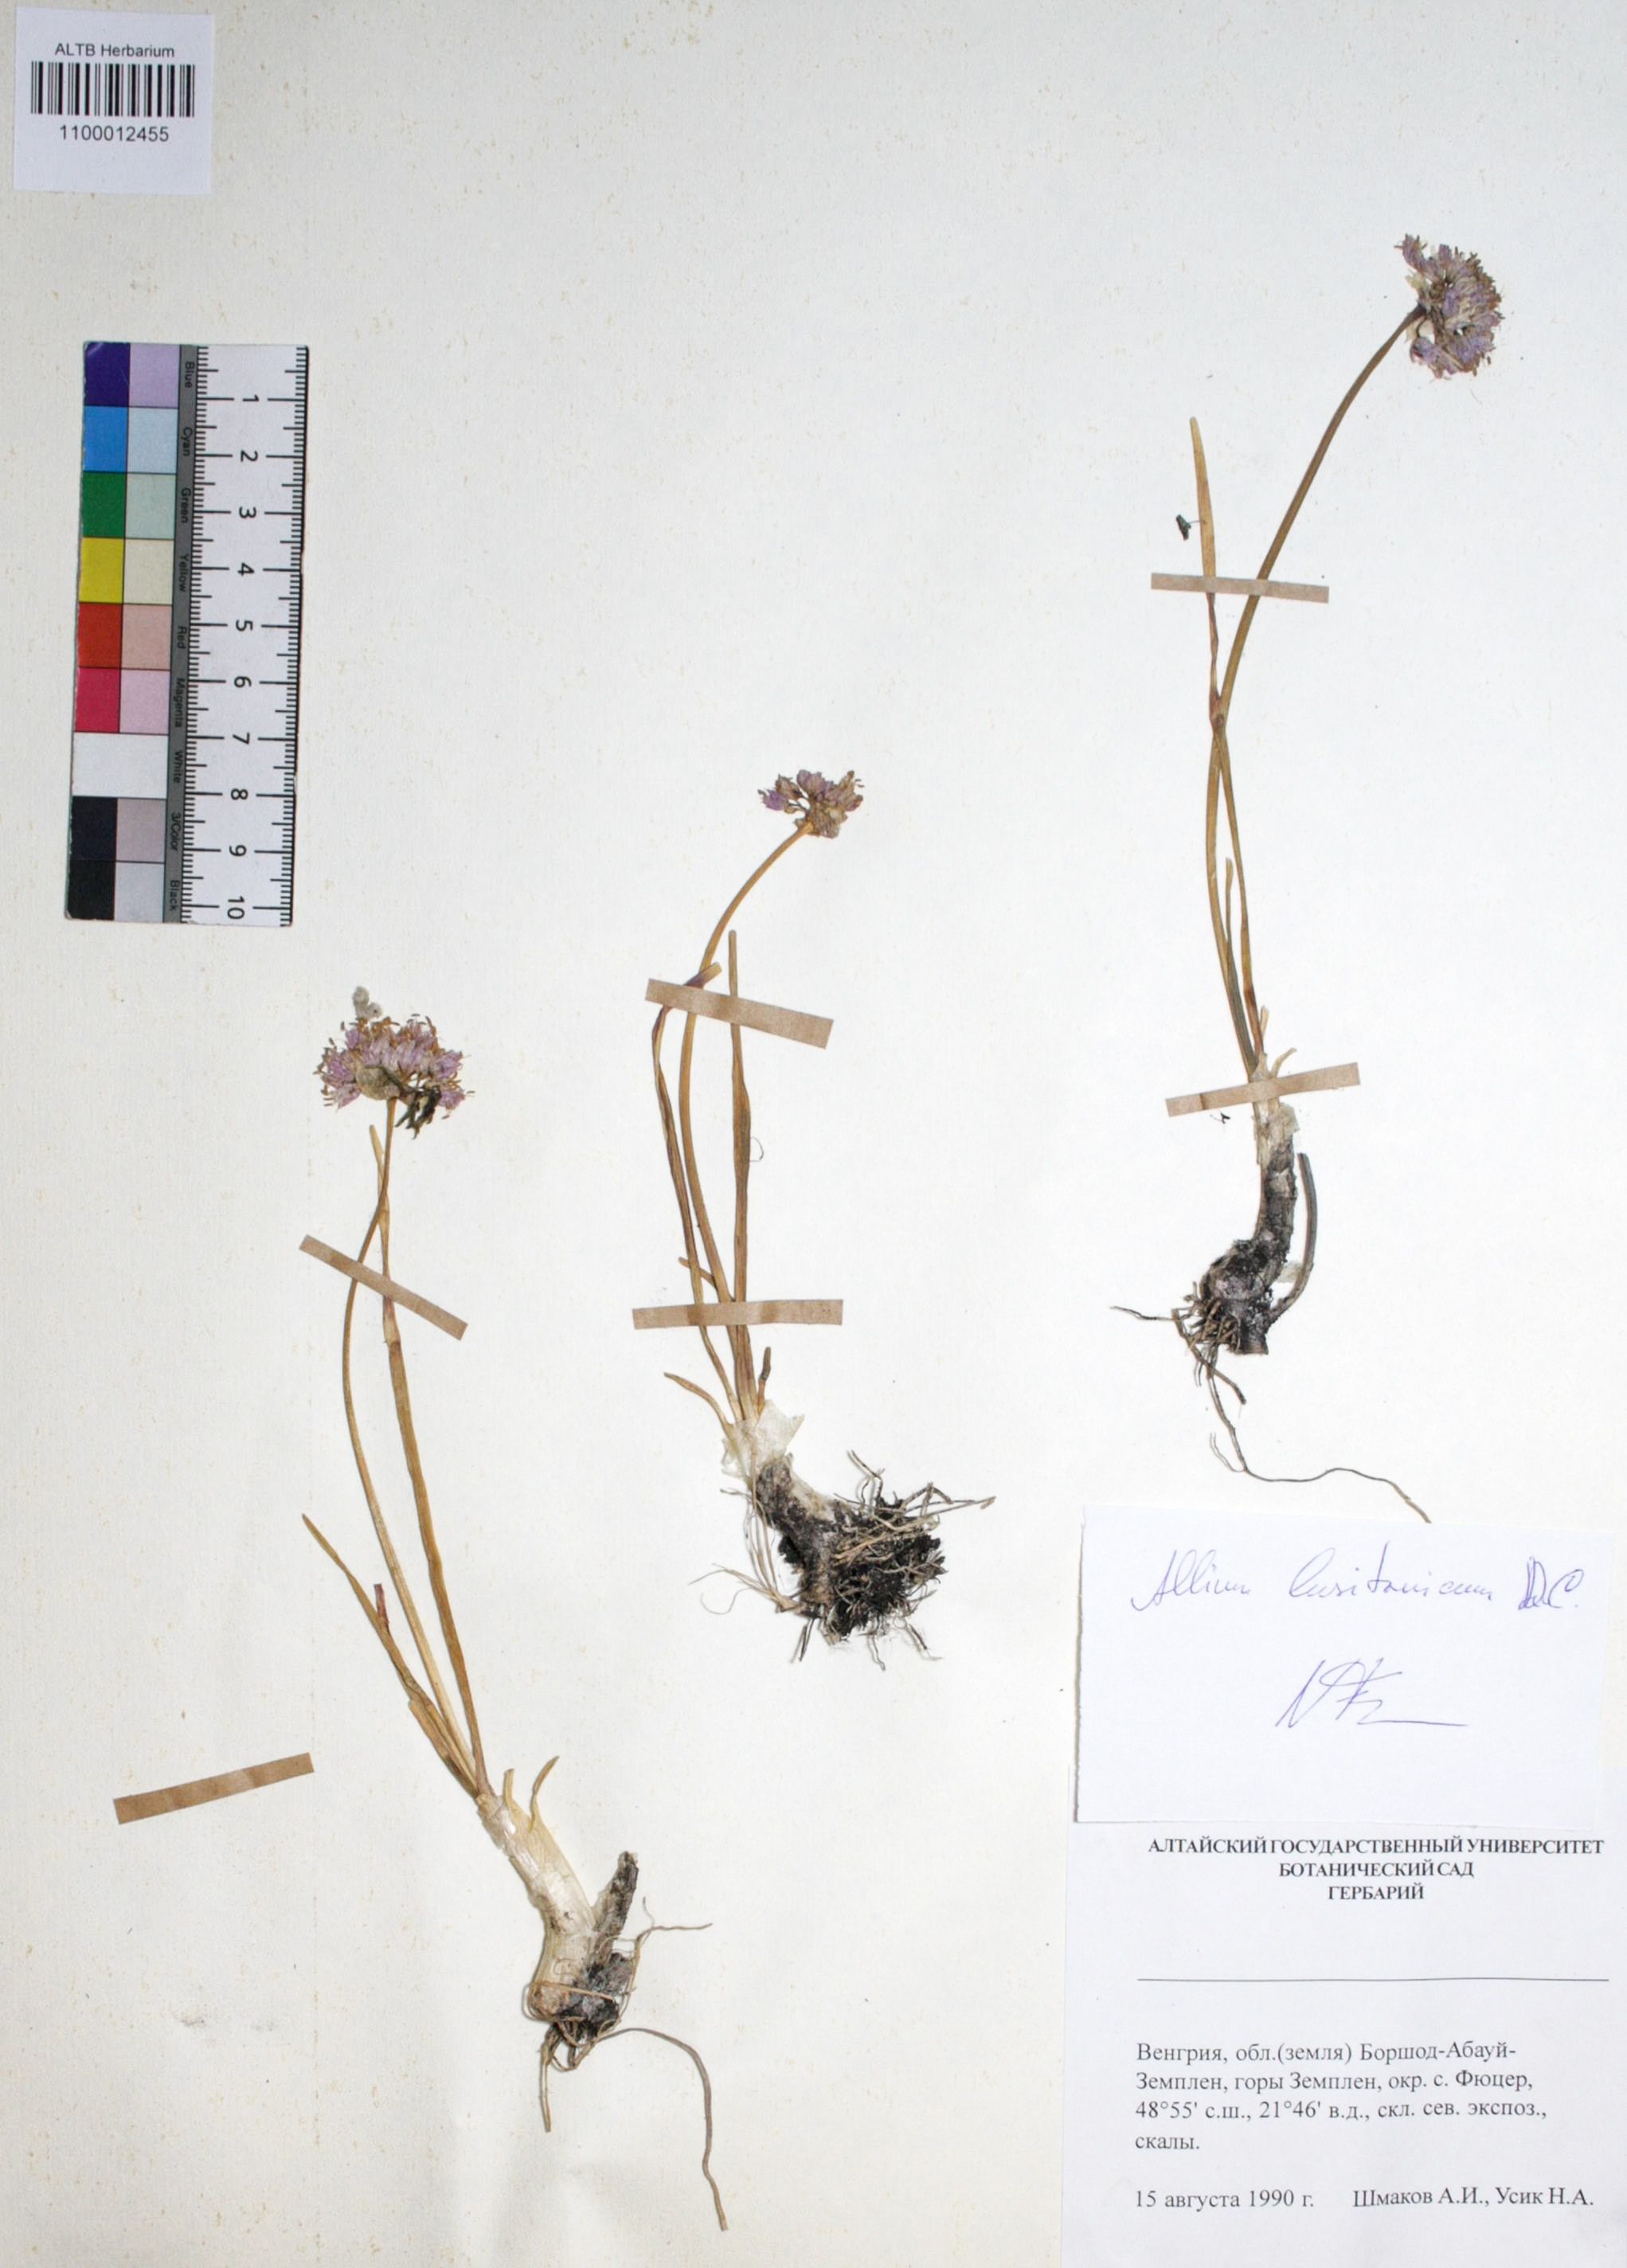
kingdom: Plantae
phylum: Tracheophyta
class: Liliopsida
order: Asparagales
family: Amaryllidaceae
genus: Allium
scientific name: Allium lusitanicum
